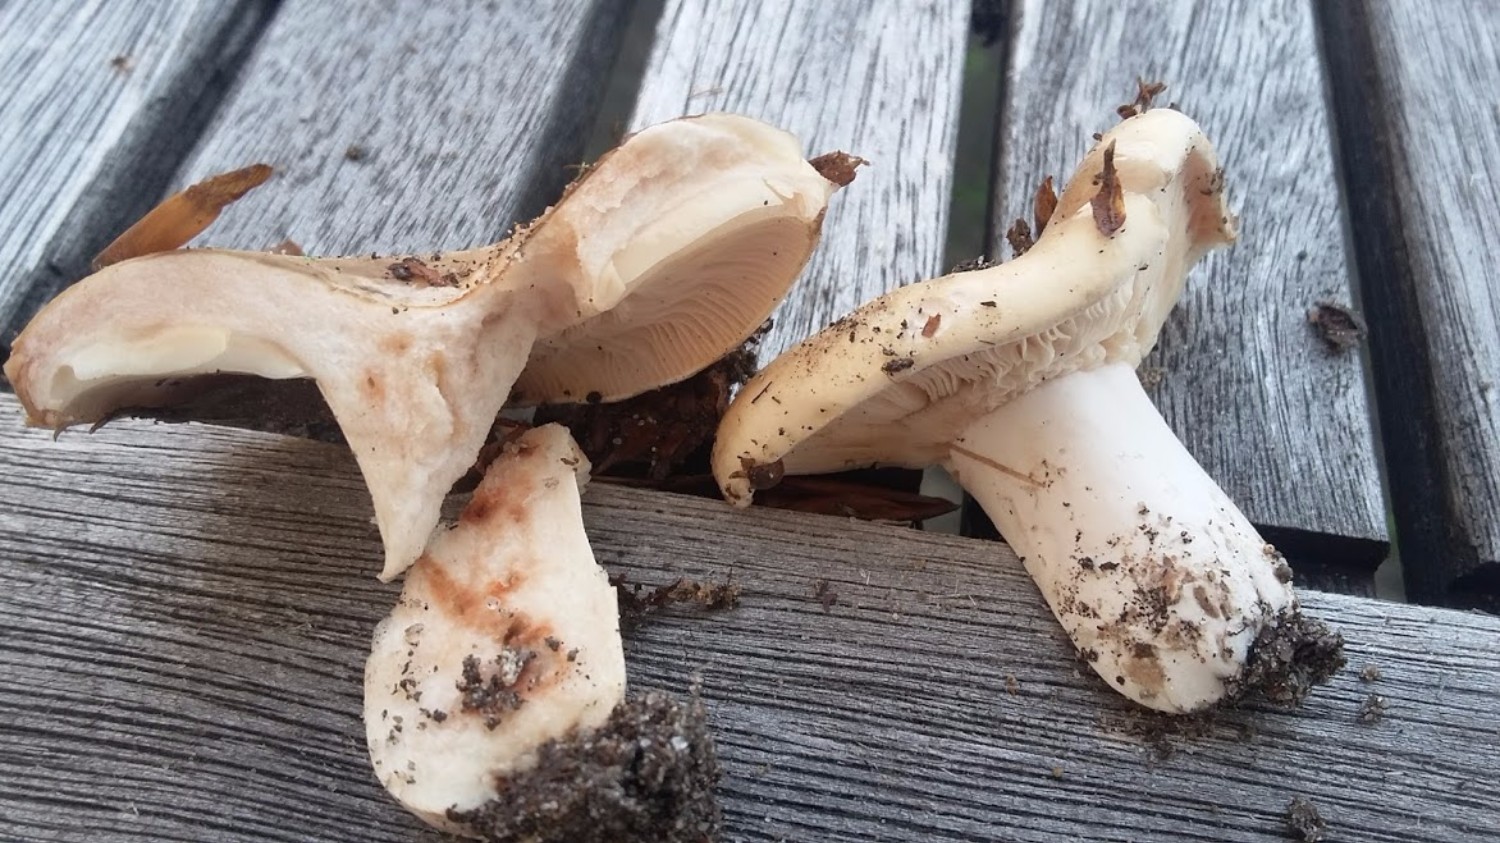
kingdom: Fungi
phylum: Basidiomycota
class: Agaricomycetes
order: Russulales
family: Russulaceae
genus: Russula
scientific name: Russula densifolia
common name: tætbladet skørhat
